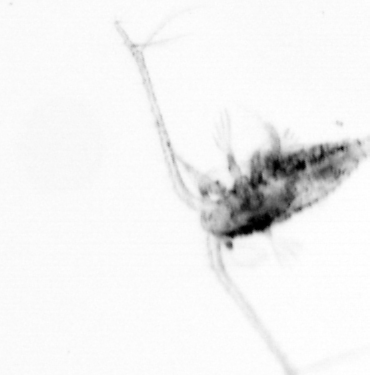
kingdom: Animalia
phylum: Arthropoda
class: Copepoda
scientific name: Copepoda
